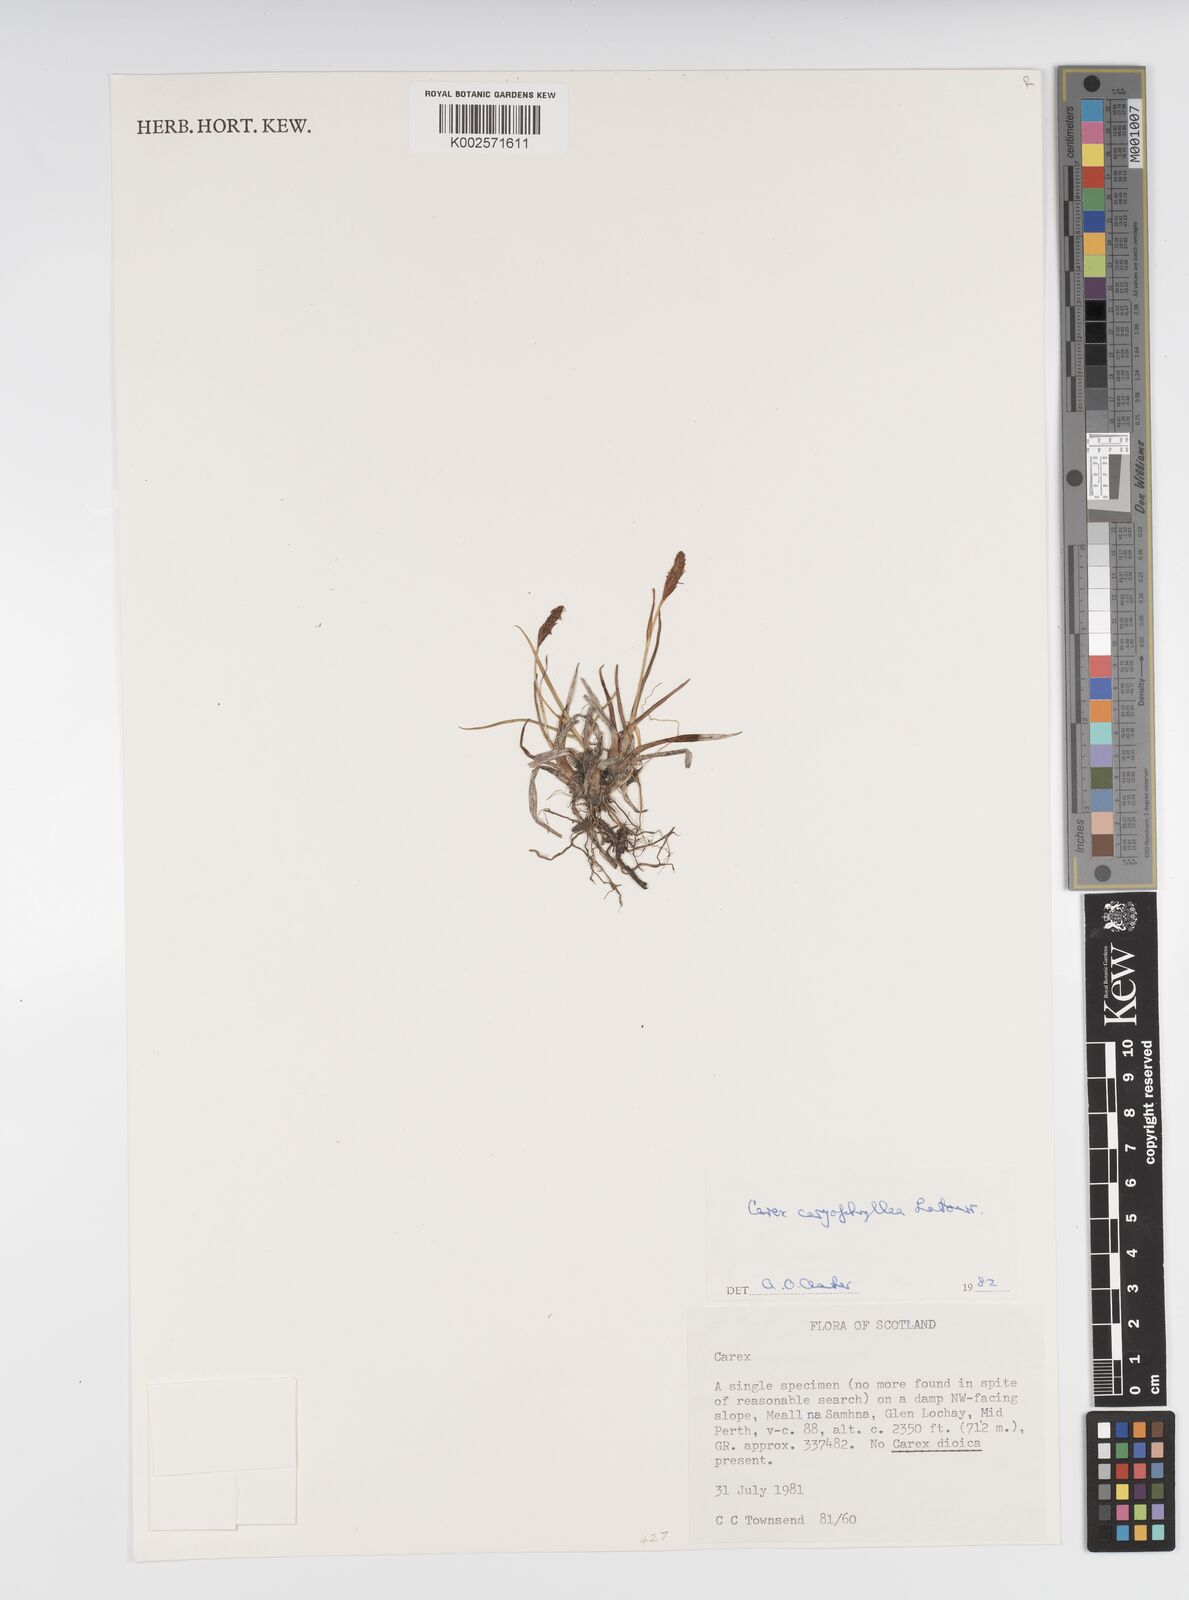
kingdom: Plantae
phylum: Tracheophyta
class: Liliopsida
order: Poales
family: Cyperaceae
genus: Carex
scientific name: Carex caryophyllea
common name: Spring sedge
